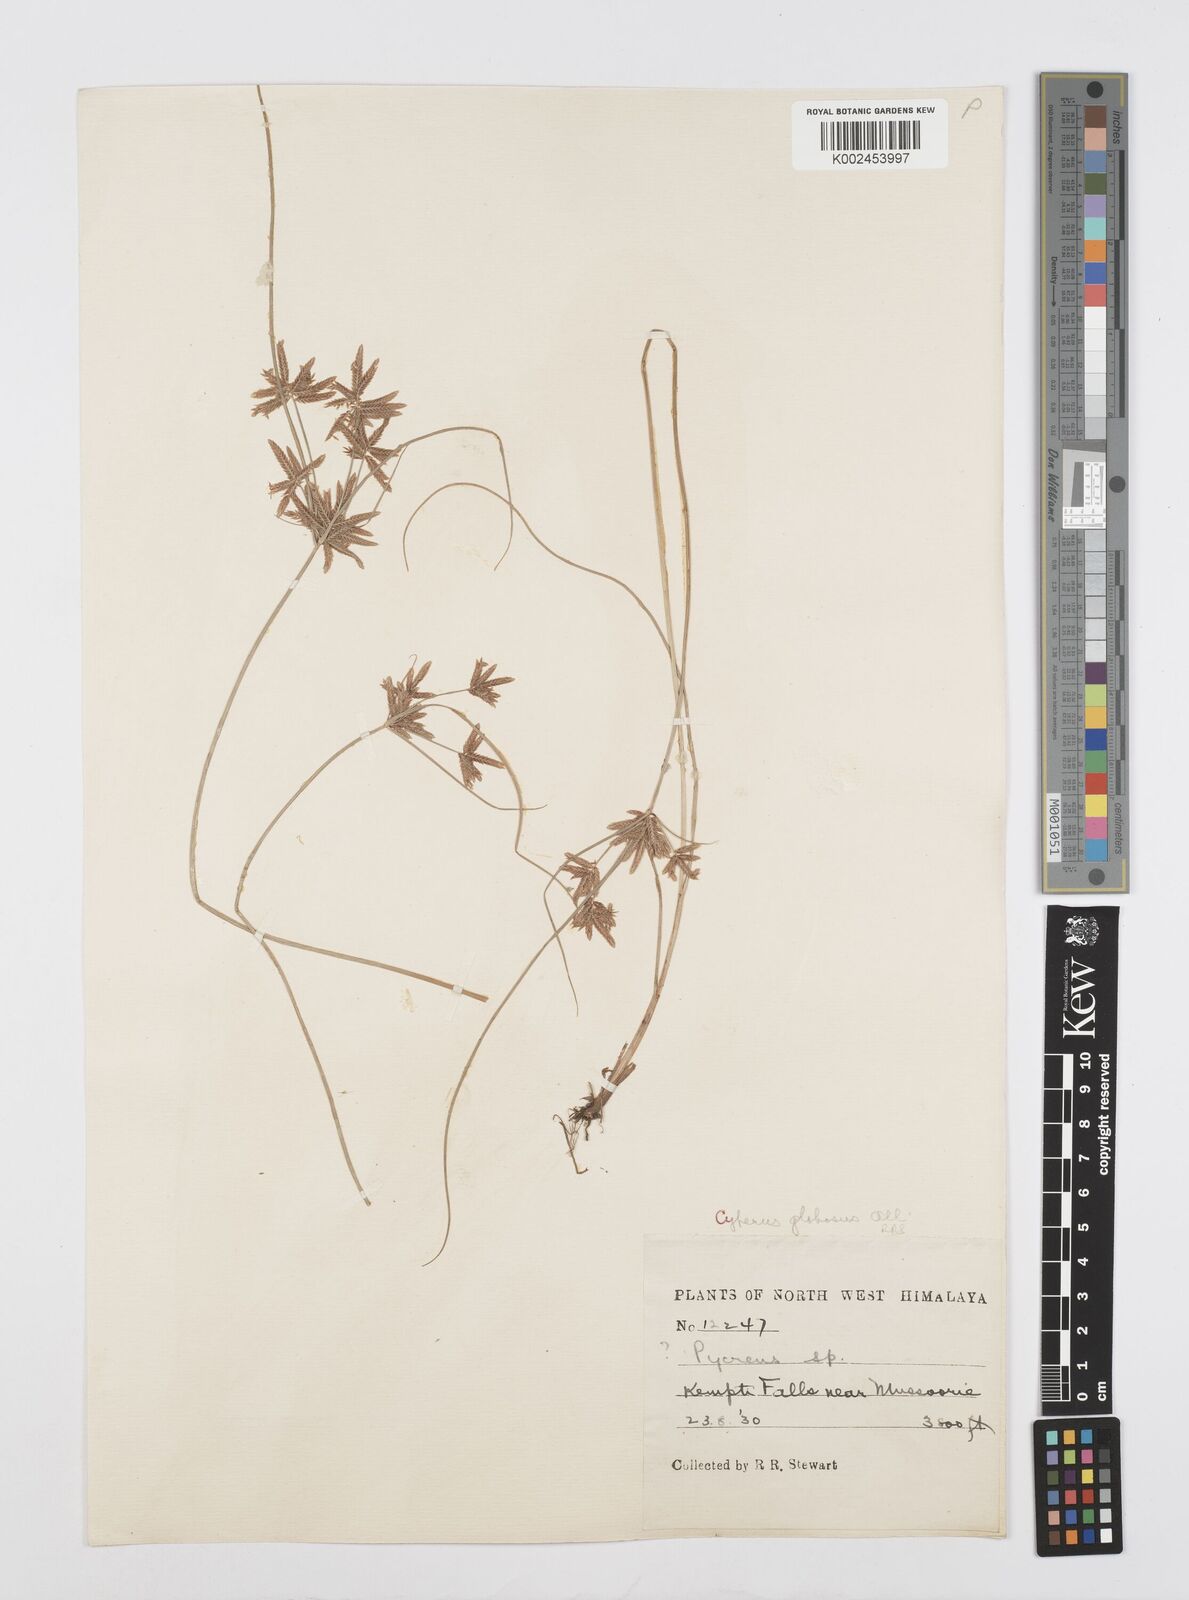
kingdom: Plantae
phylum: Tracheophyta
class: Liliopsida
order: Poales
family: Cyperaceae
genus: Cyperus
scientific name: Cyperus flavidus
